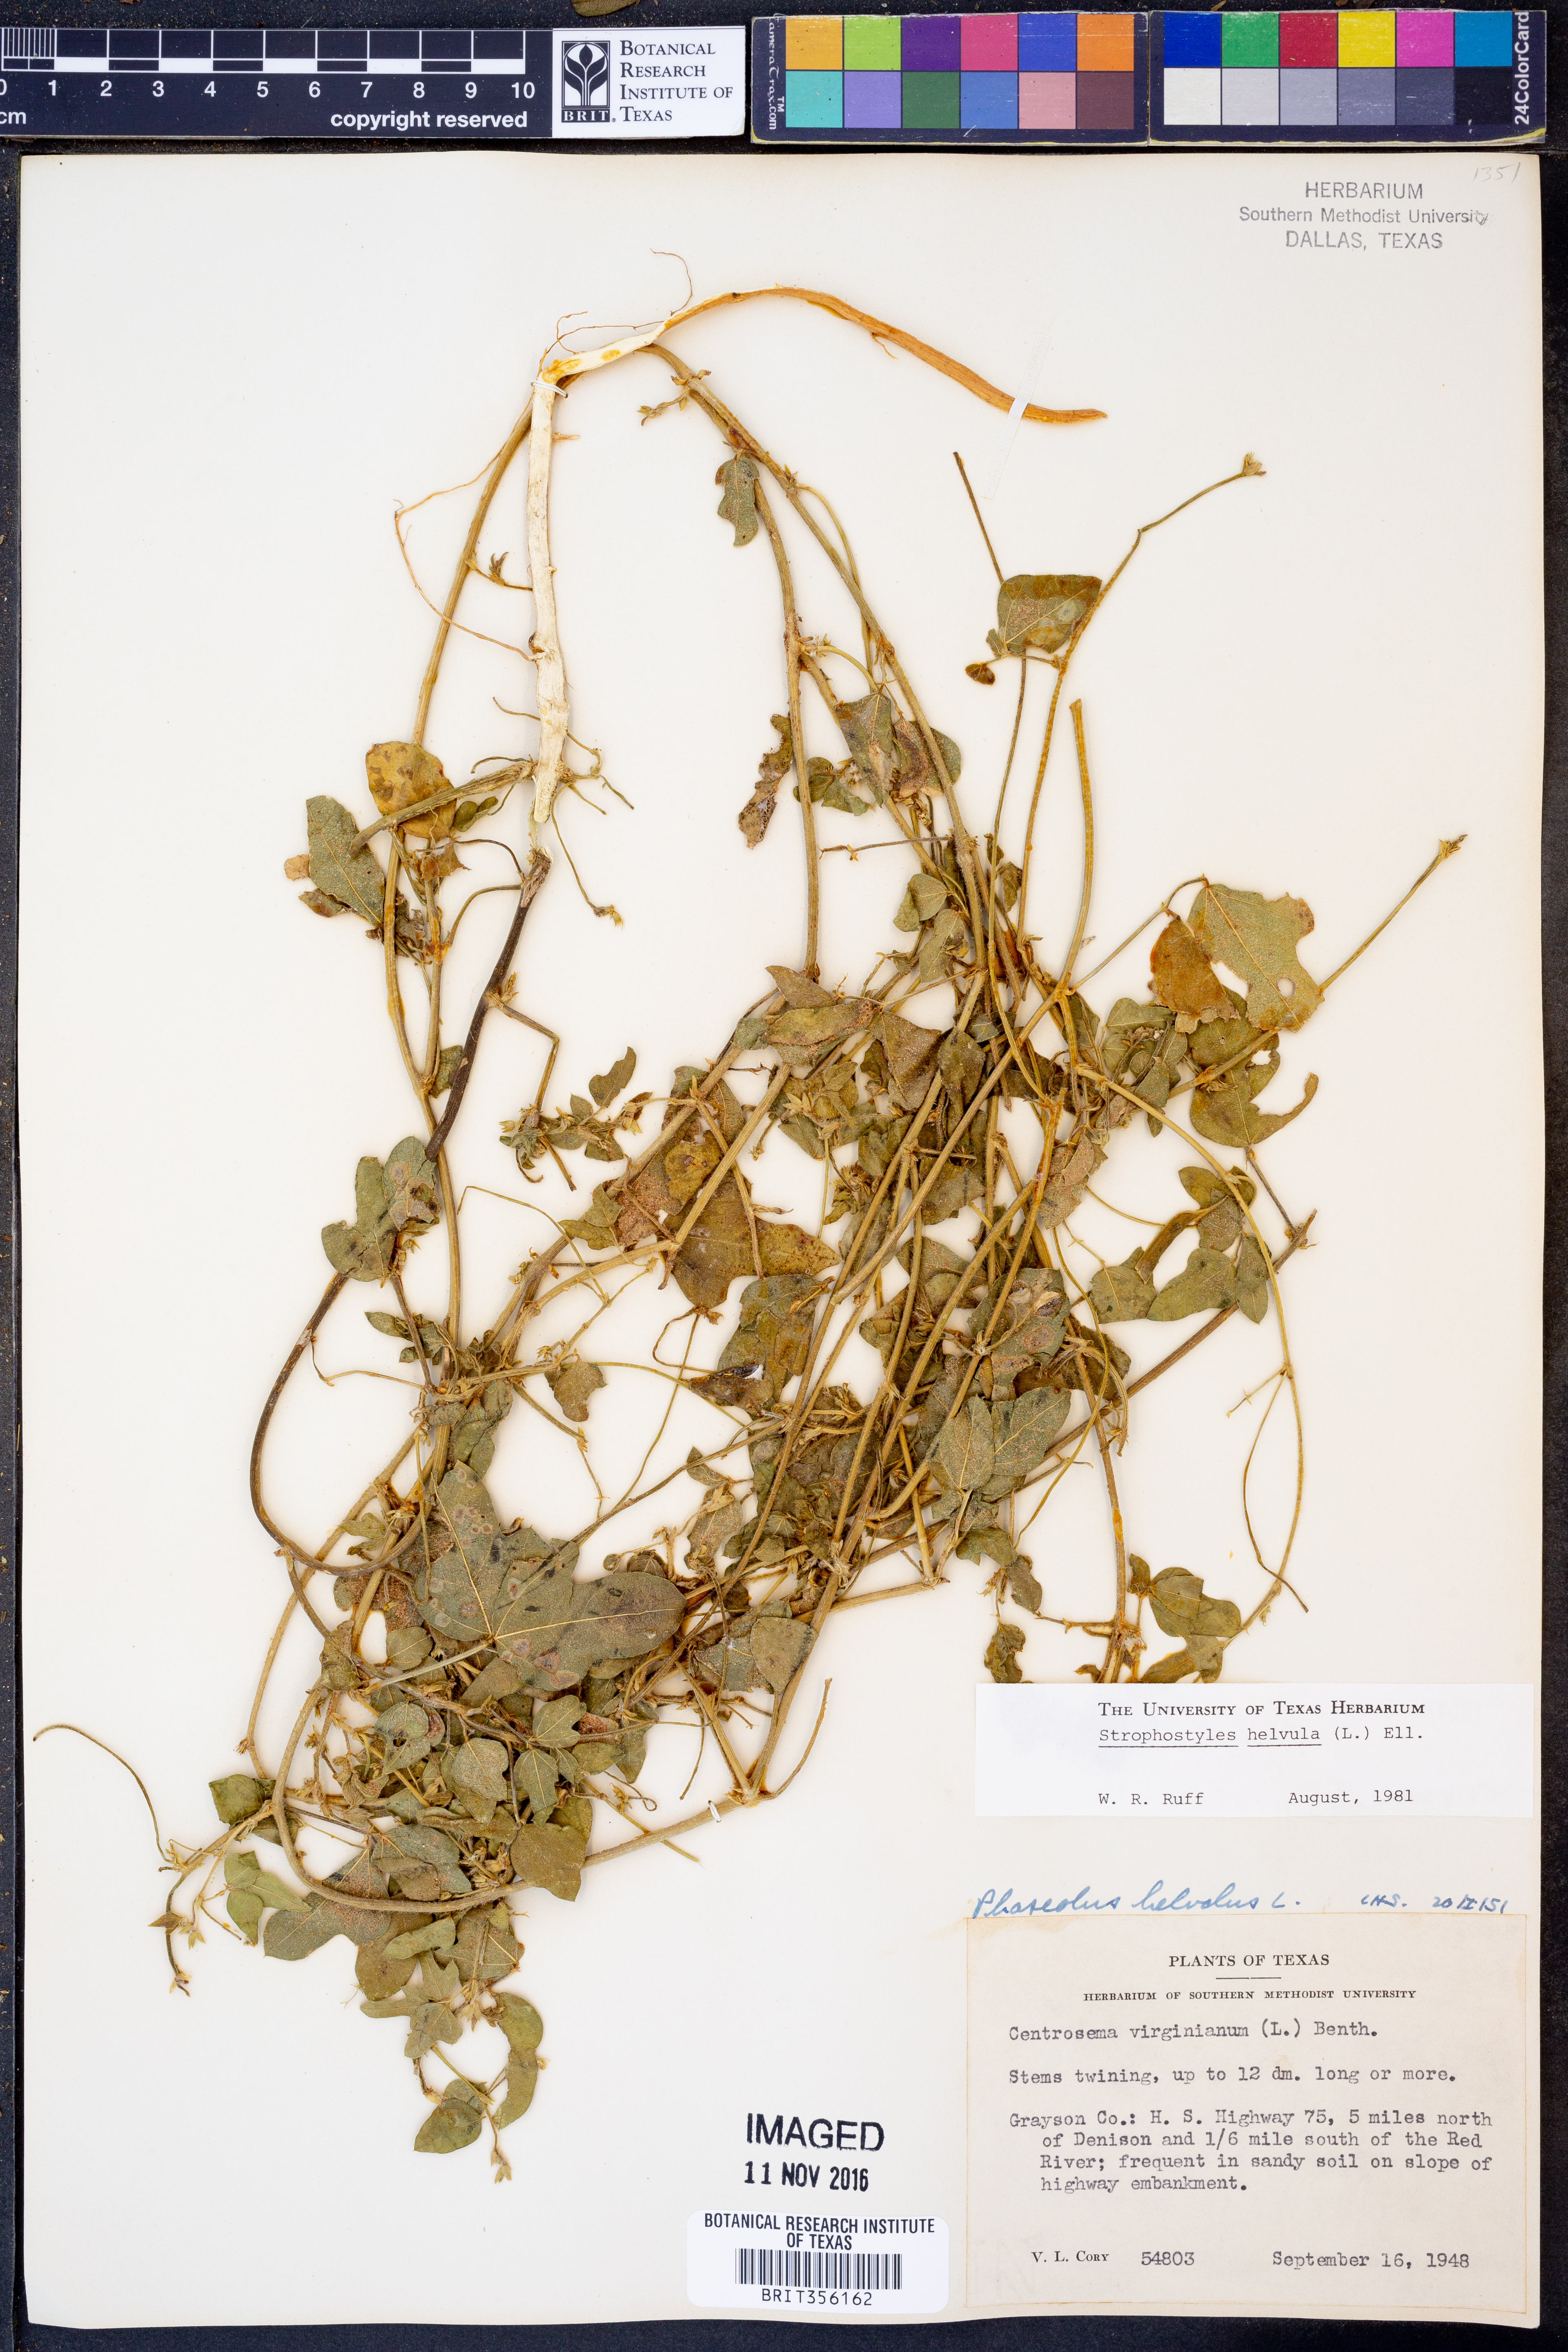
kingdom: Plantae
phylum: Tracheophyta
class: Magnoliopsida
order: Fabales
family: Fabaceae
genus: Strophostyles
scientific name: Strophostyles helvula
